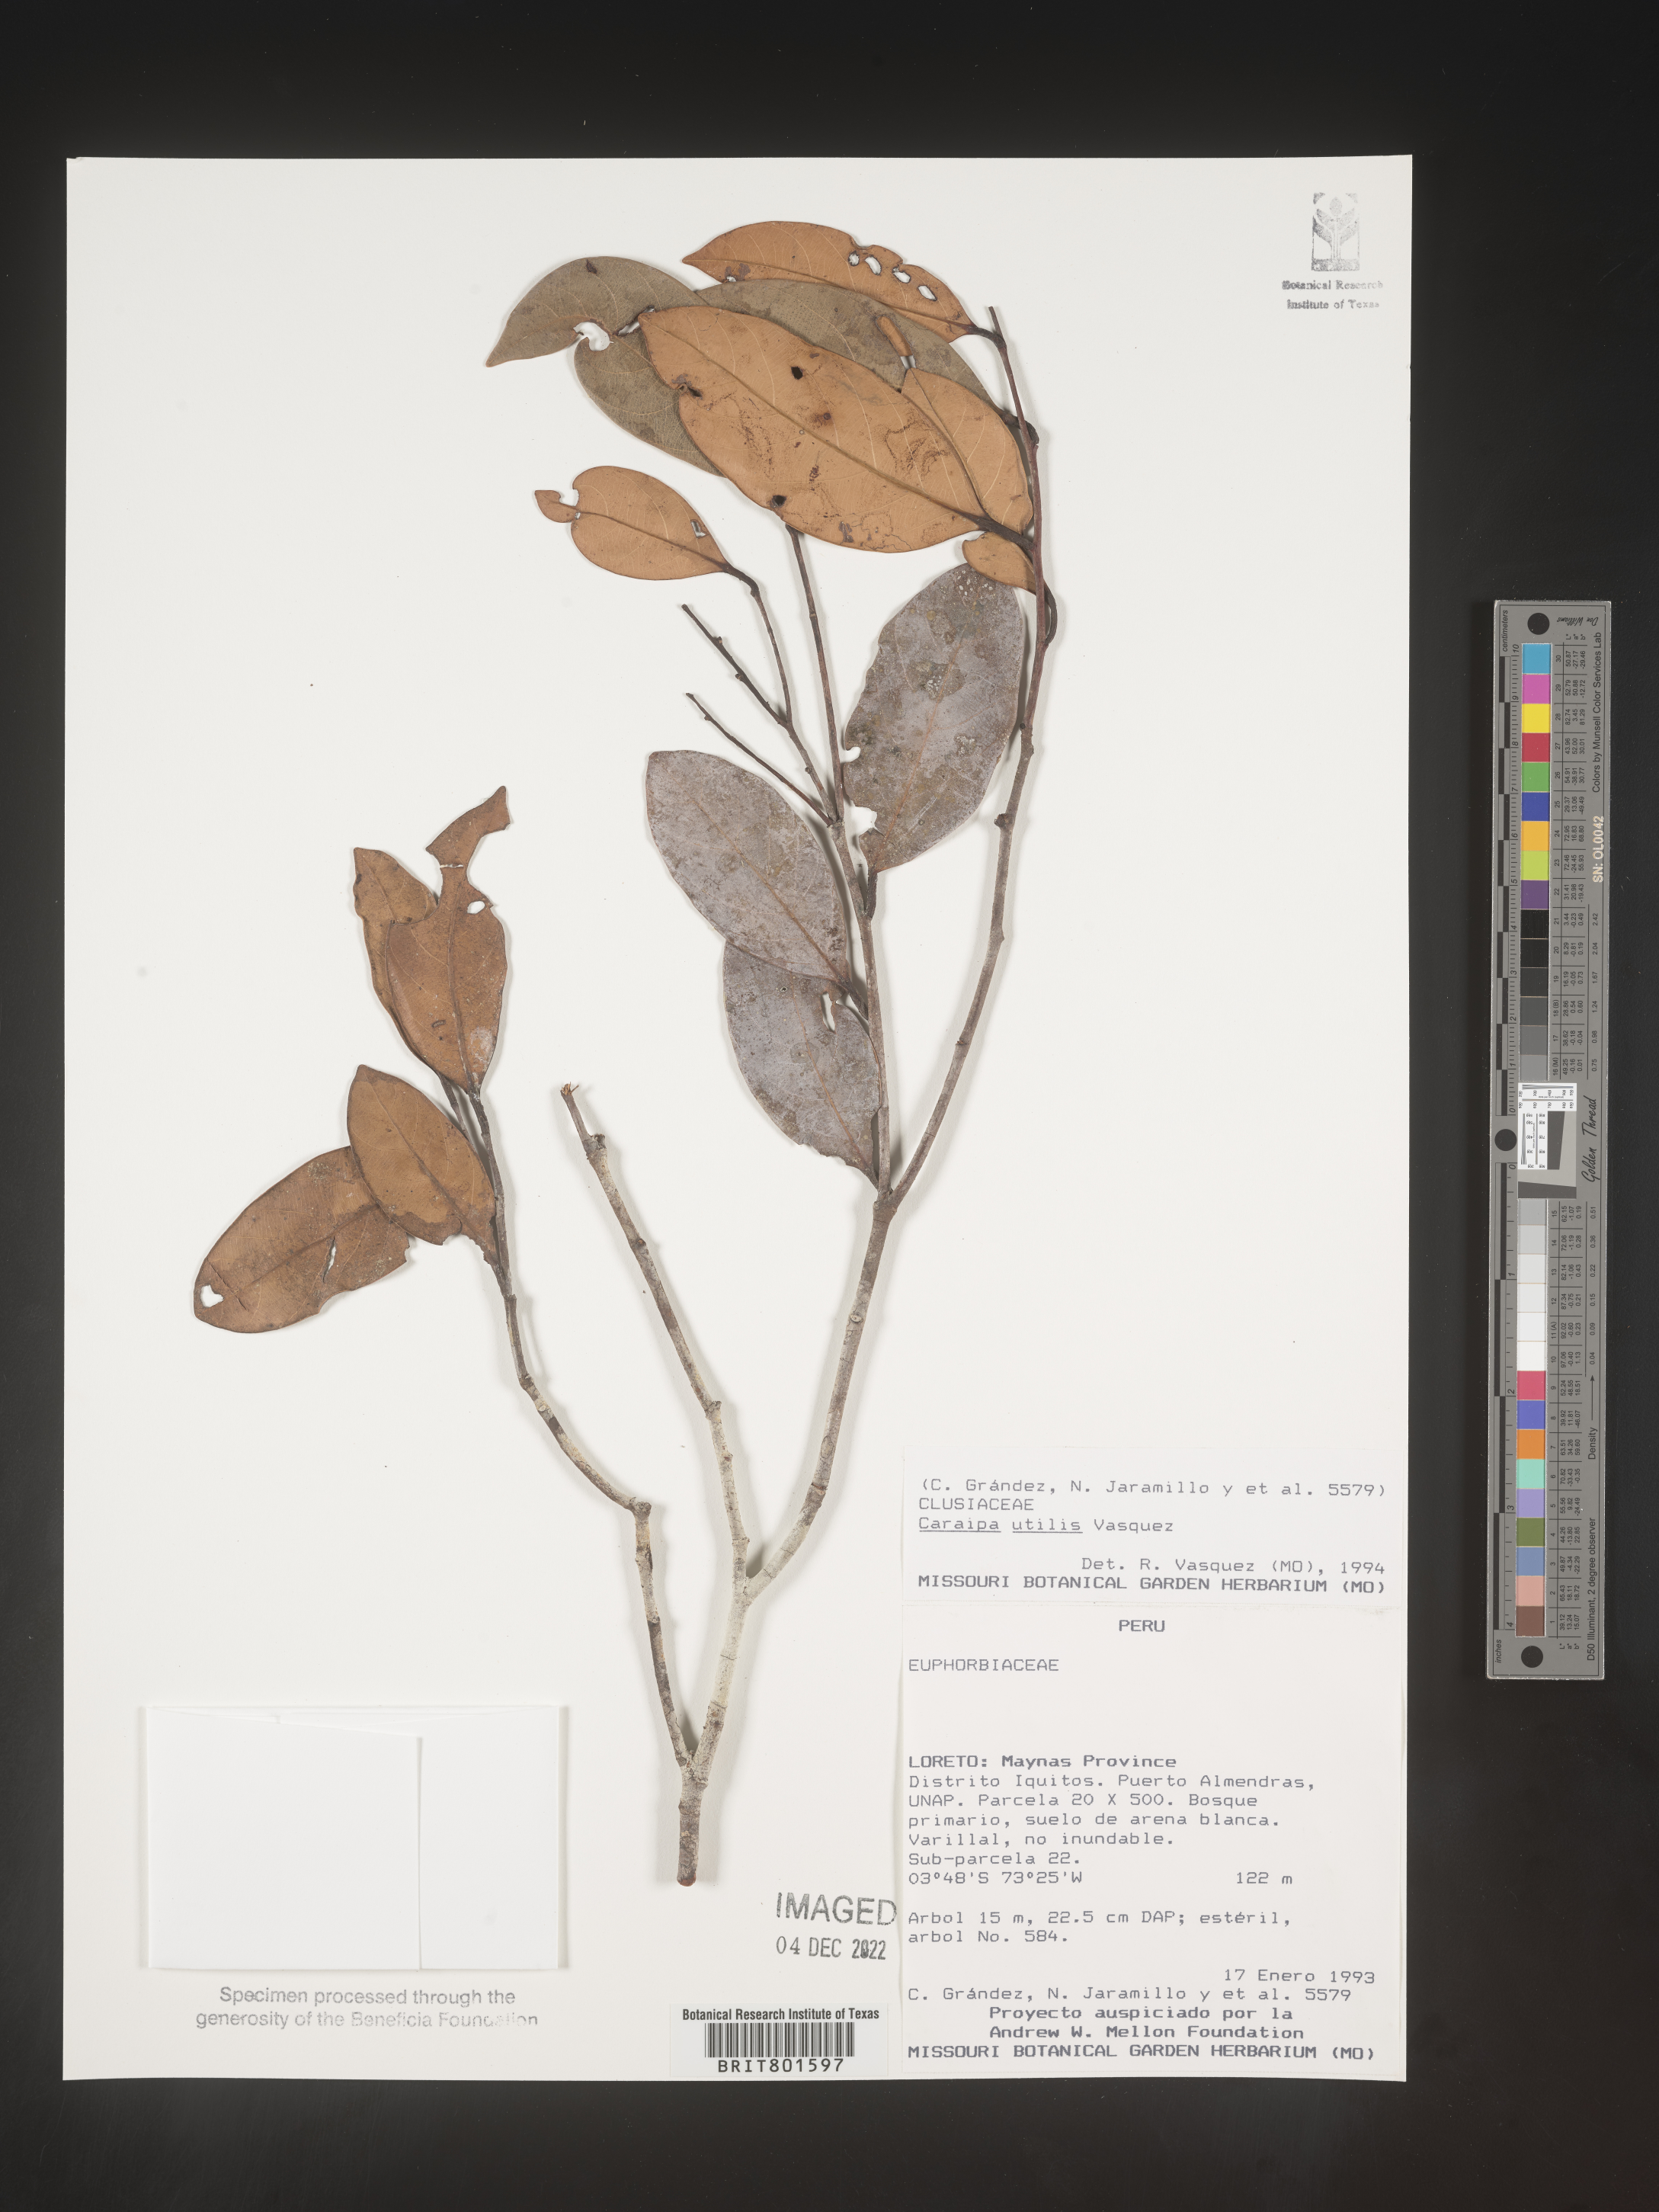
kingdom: Plantae
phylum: Tracheophyta
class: Magnoliopsida
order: Malpighiales
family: Calophyllaceae
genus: Caraipa
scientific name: Caraipa utilis
